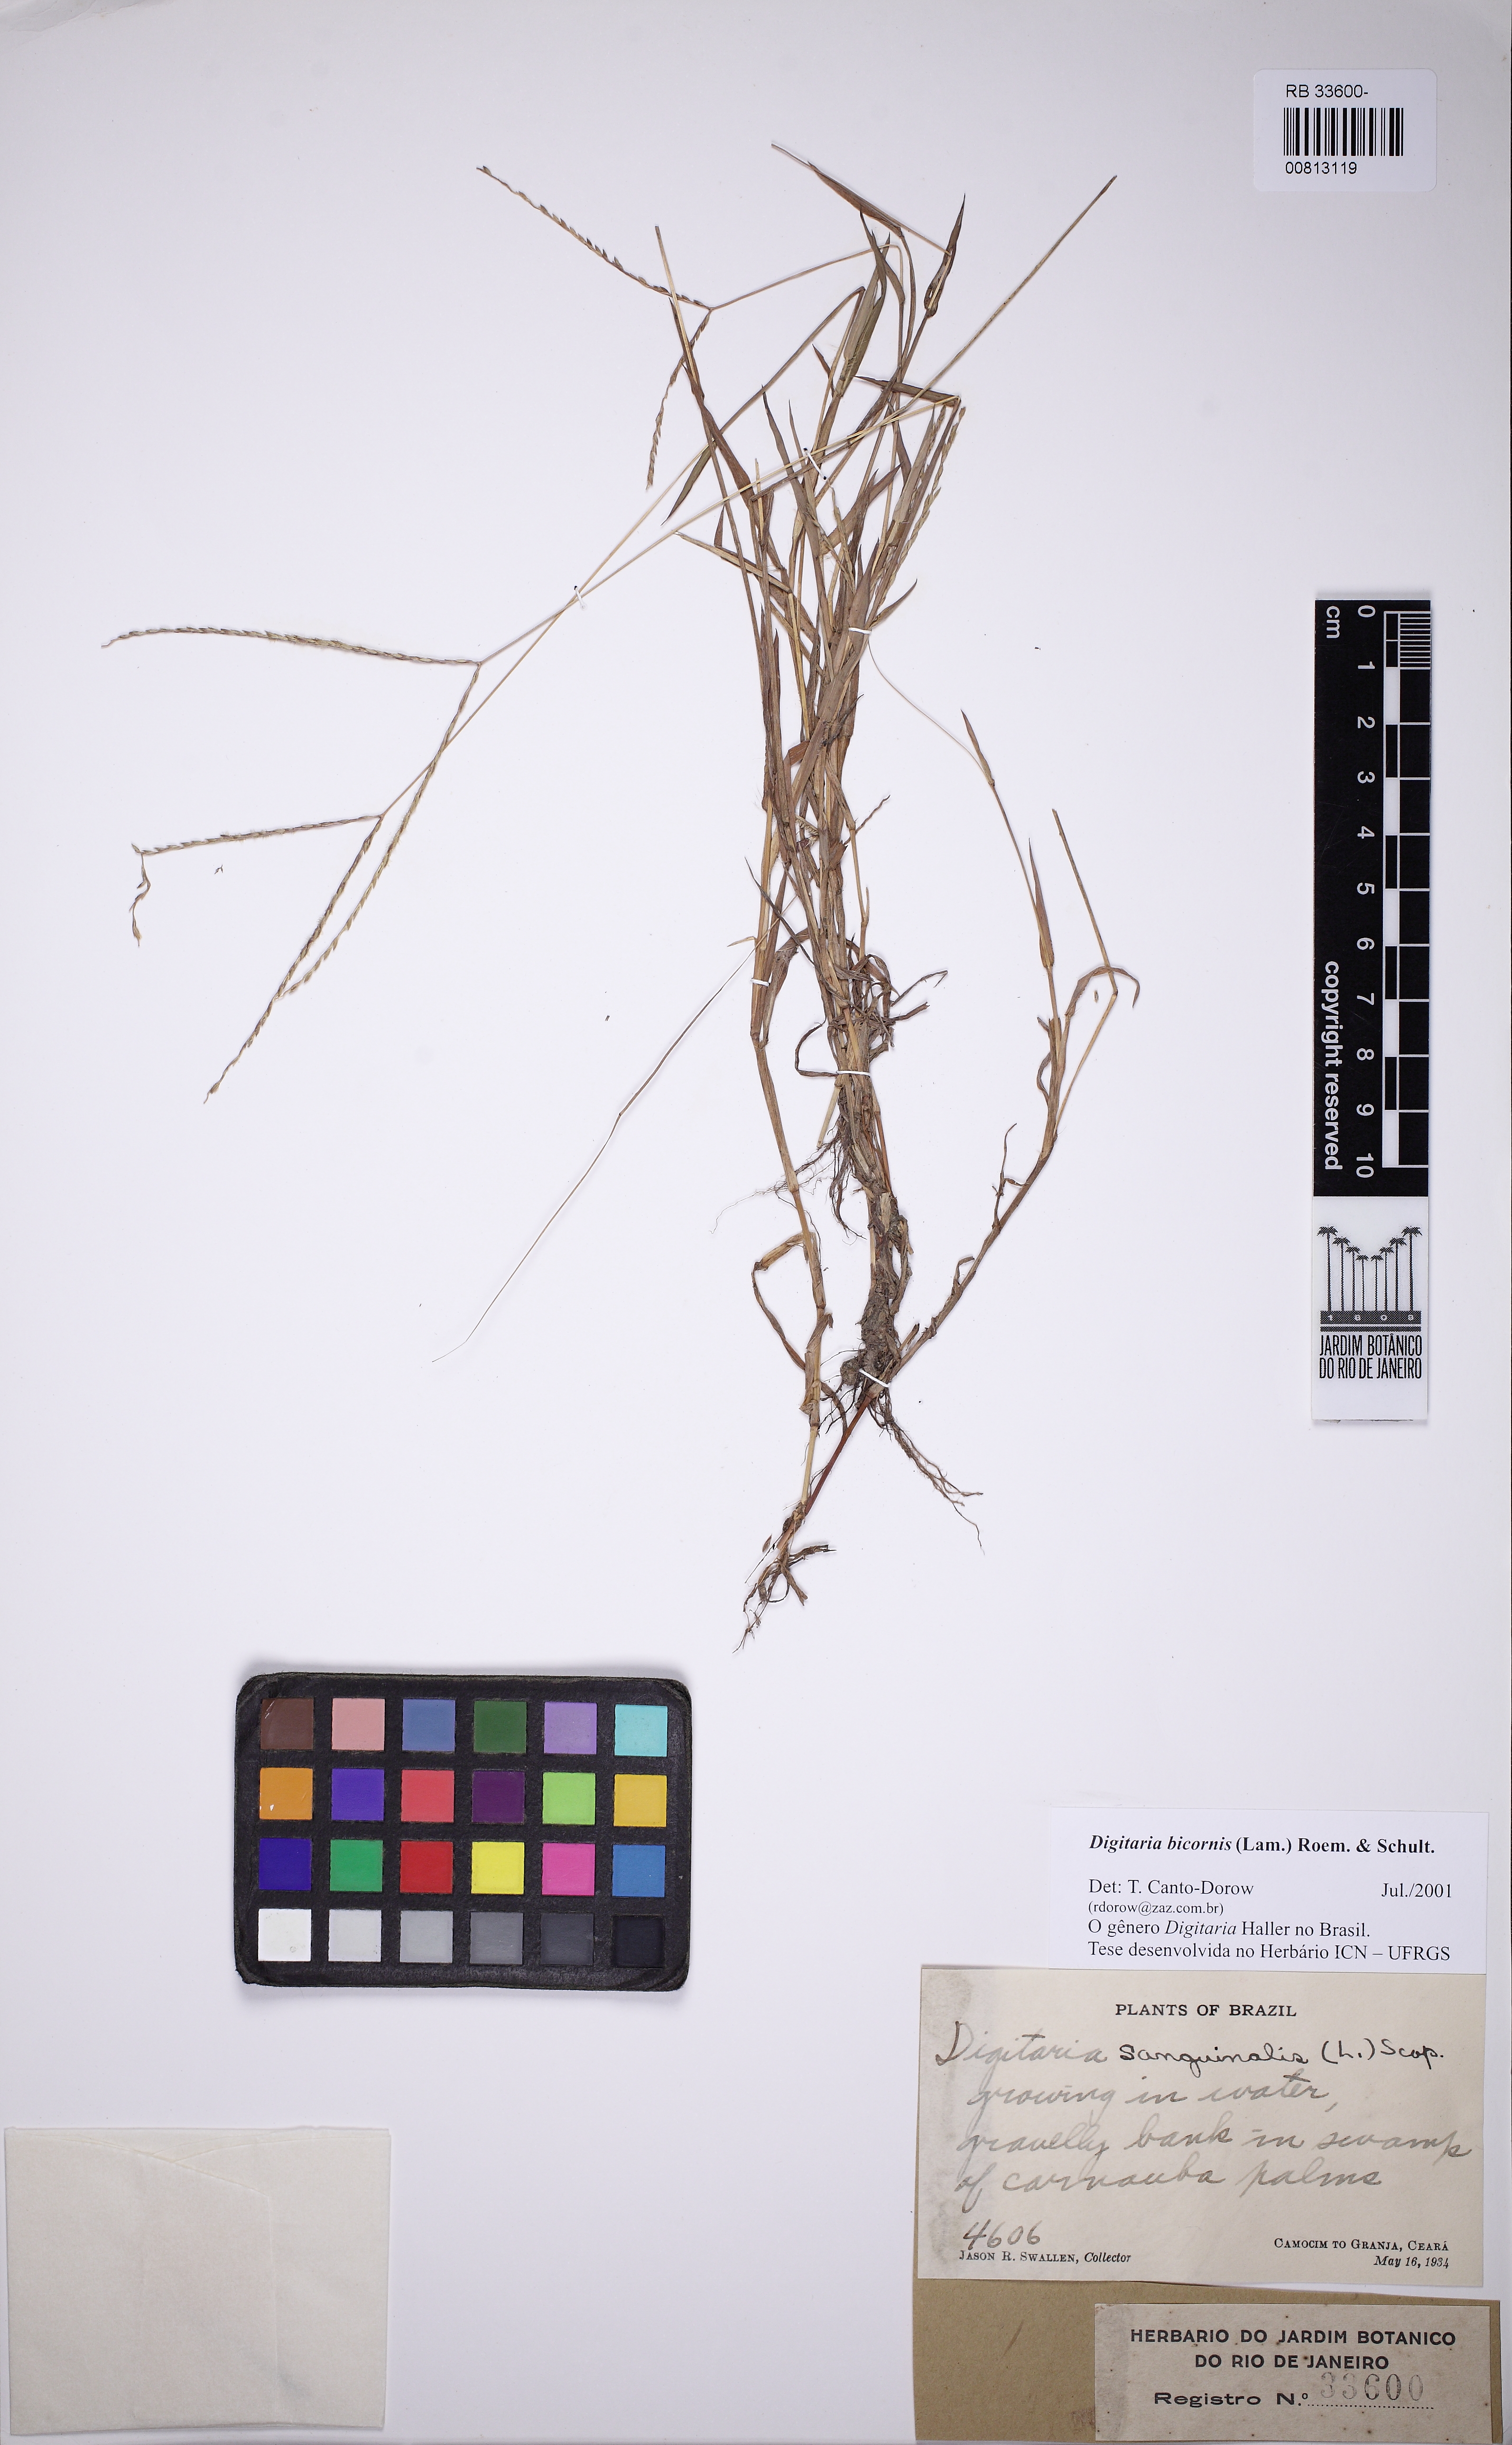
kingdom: Plantae
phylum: Tracheophyta
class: Liliopsida
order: Poales
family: Poaceae
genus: Digitaria
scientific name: Digitaria bicornis
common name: Asian crabgrass
